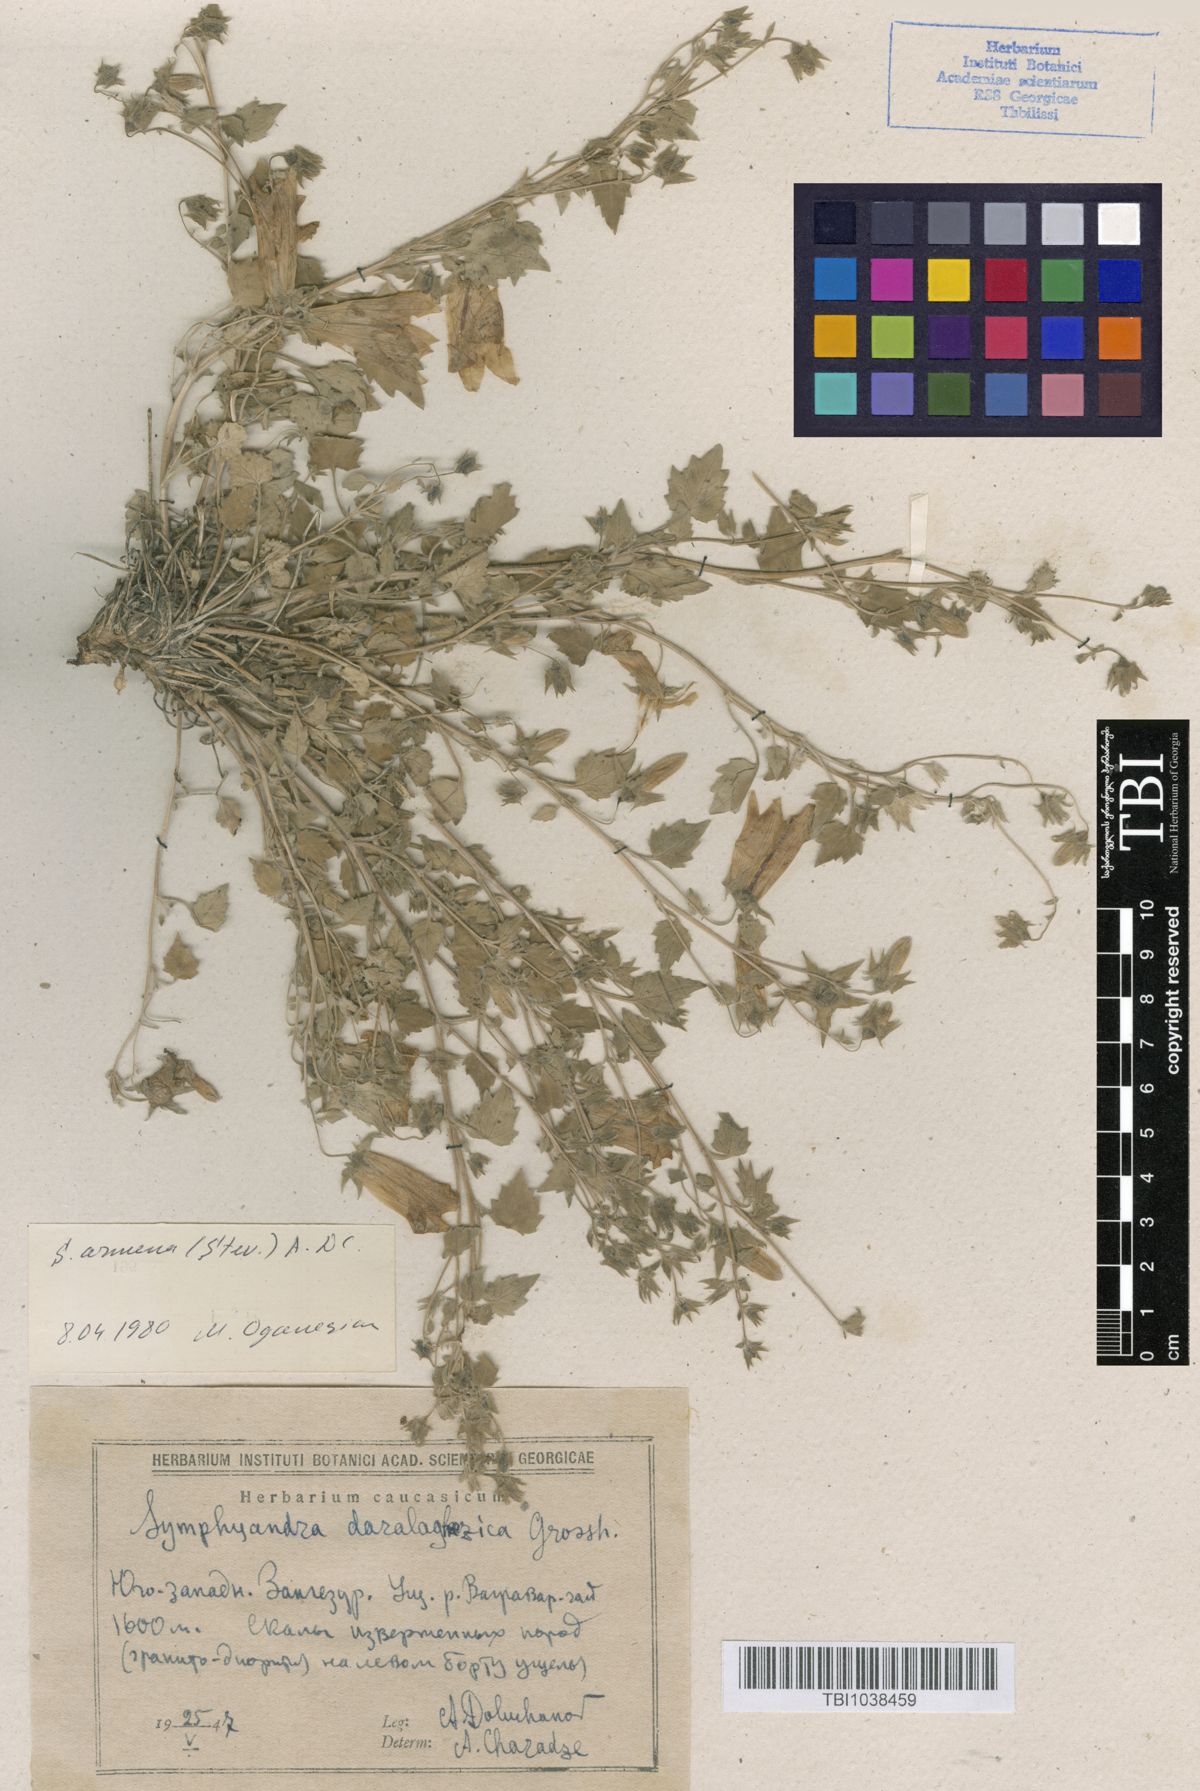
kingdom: Plantae
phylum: Tracheophyta
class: Magnoliopsida
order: Asterales
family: Campanulaceae
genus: Campanula
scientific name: Campanula armena
